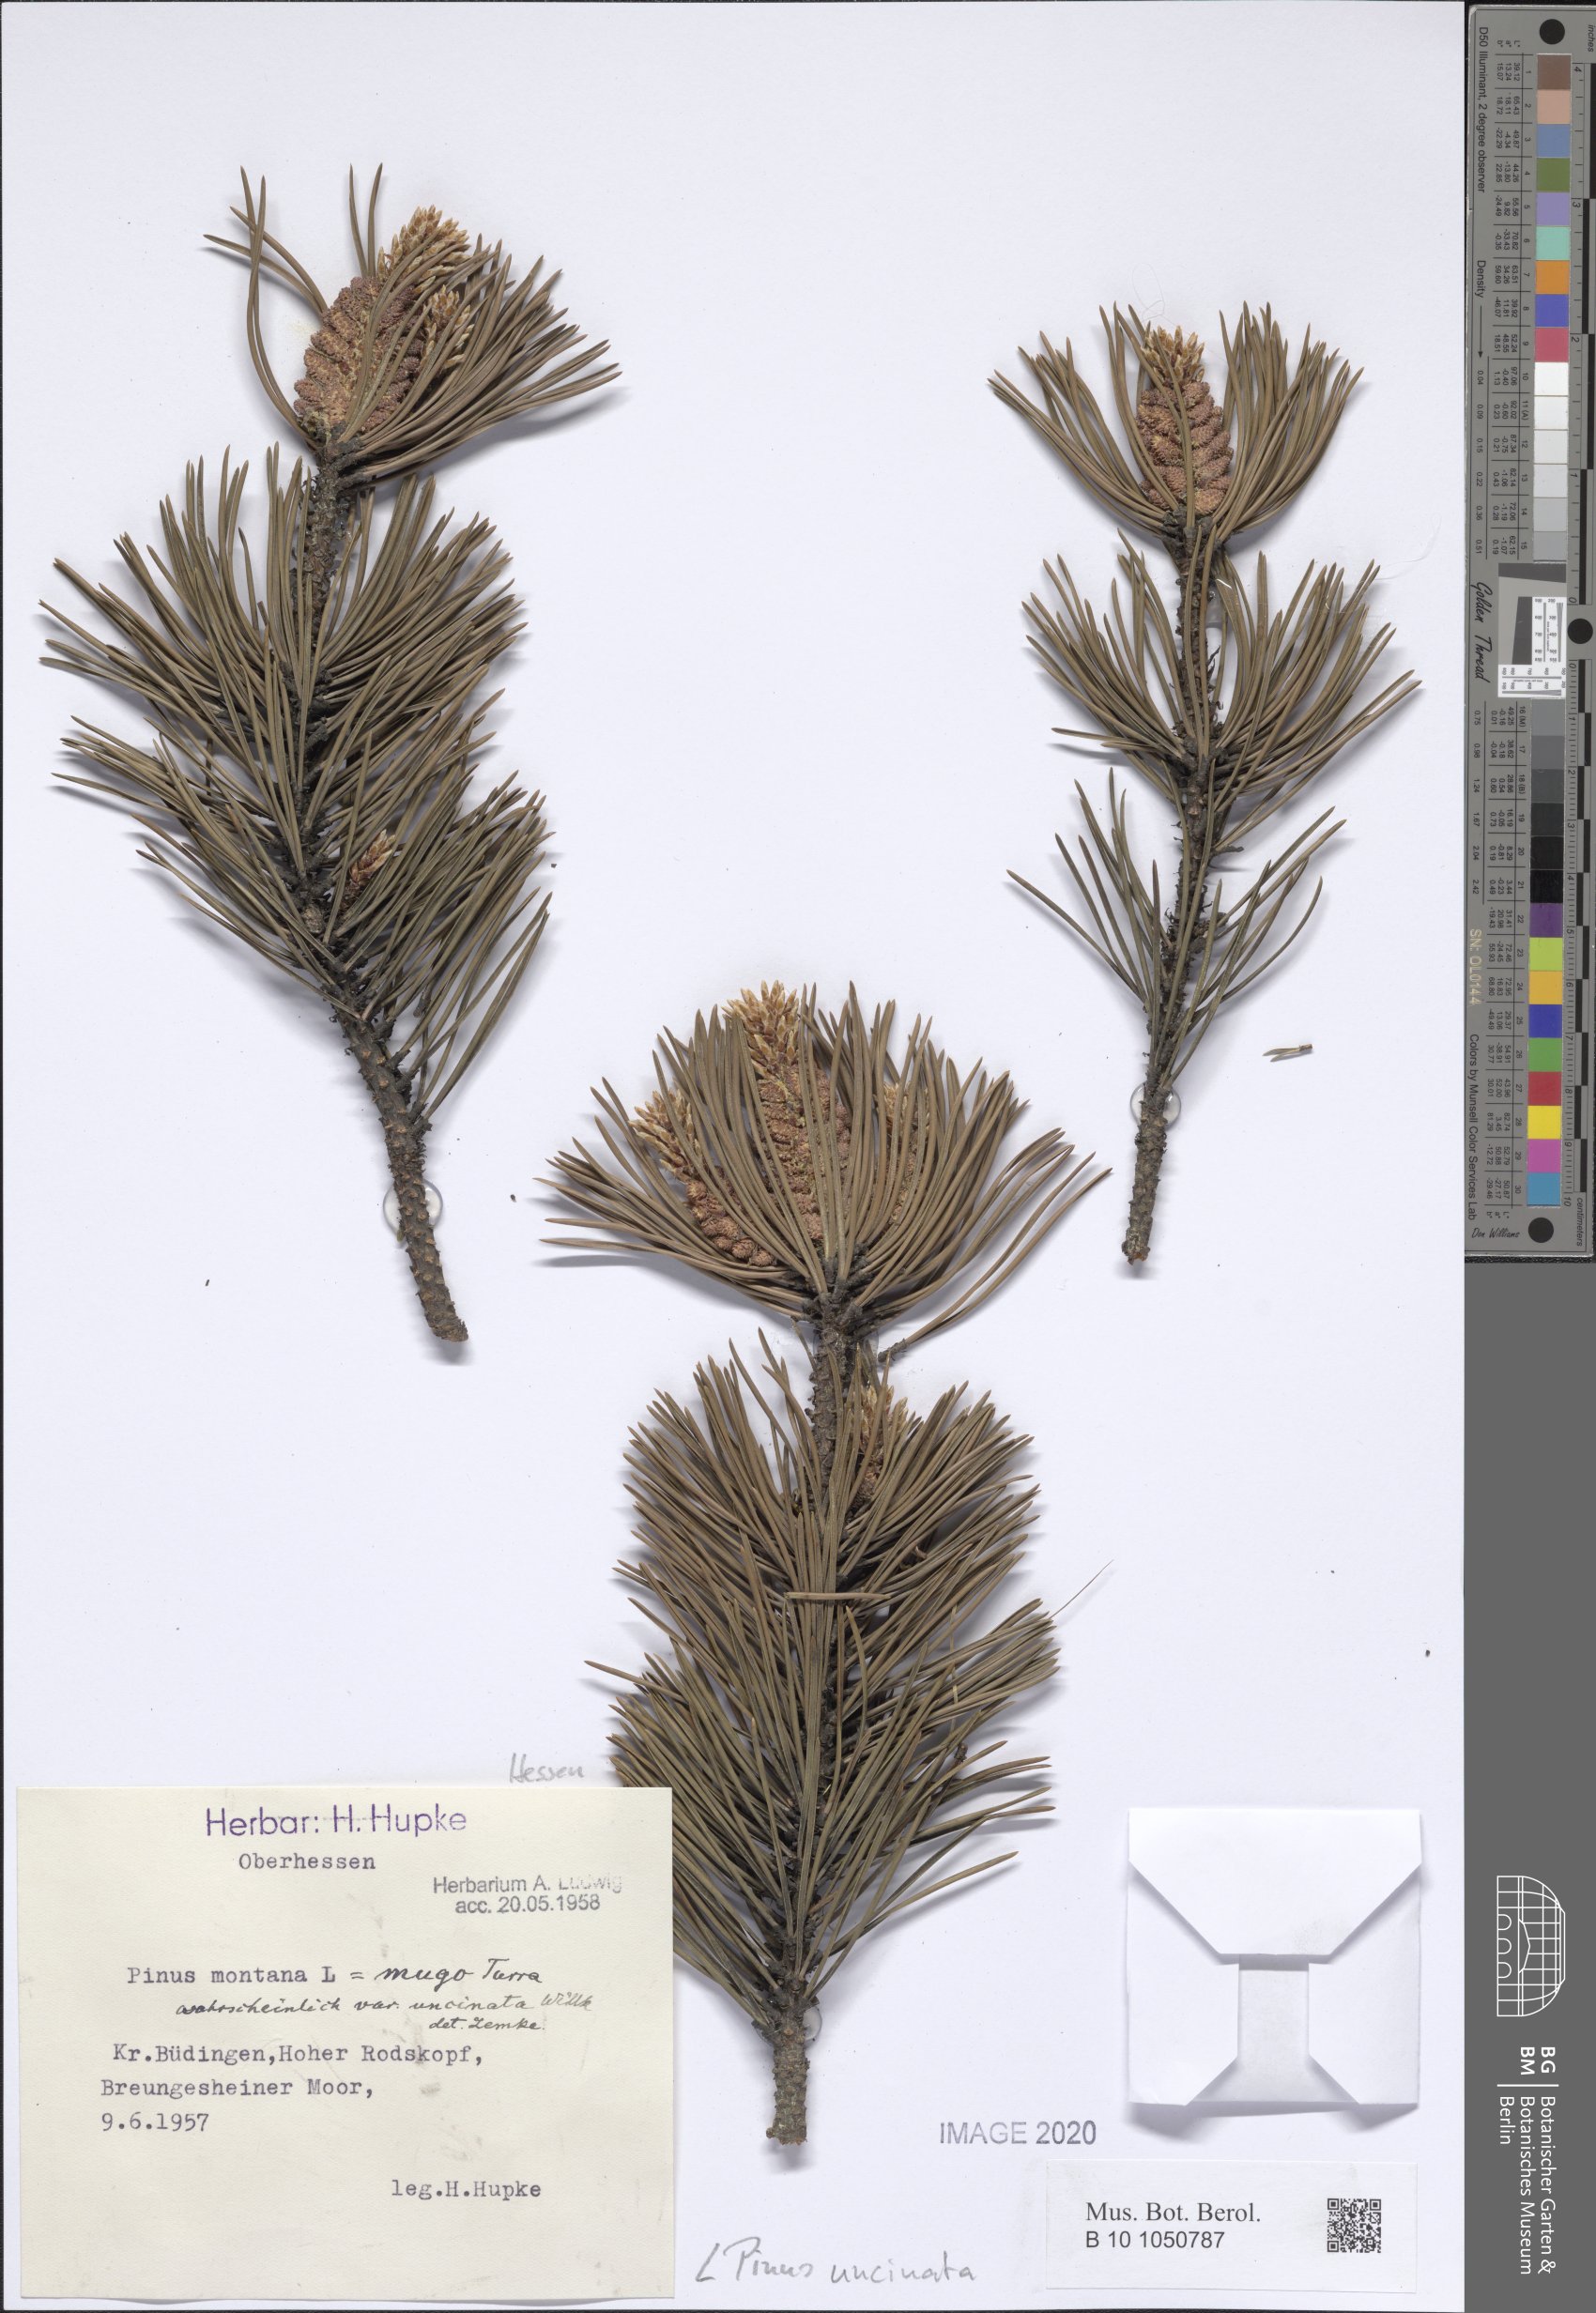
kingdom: Plantae
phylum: Tracheophyta
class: Pinopsida
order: Pinales
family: Pinaceae
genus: Pinus
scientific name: Pinus uncinata
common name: Mountain pine
